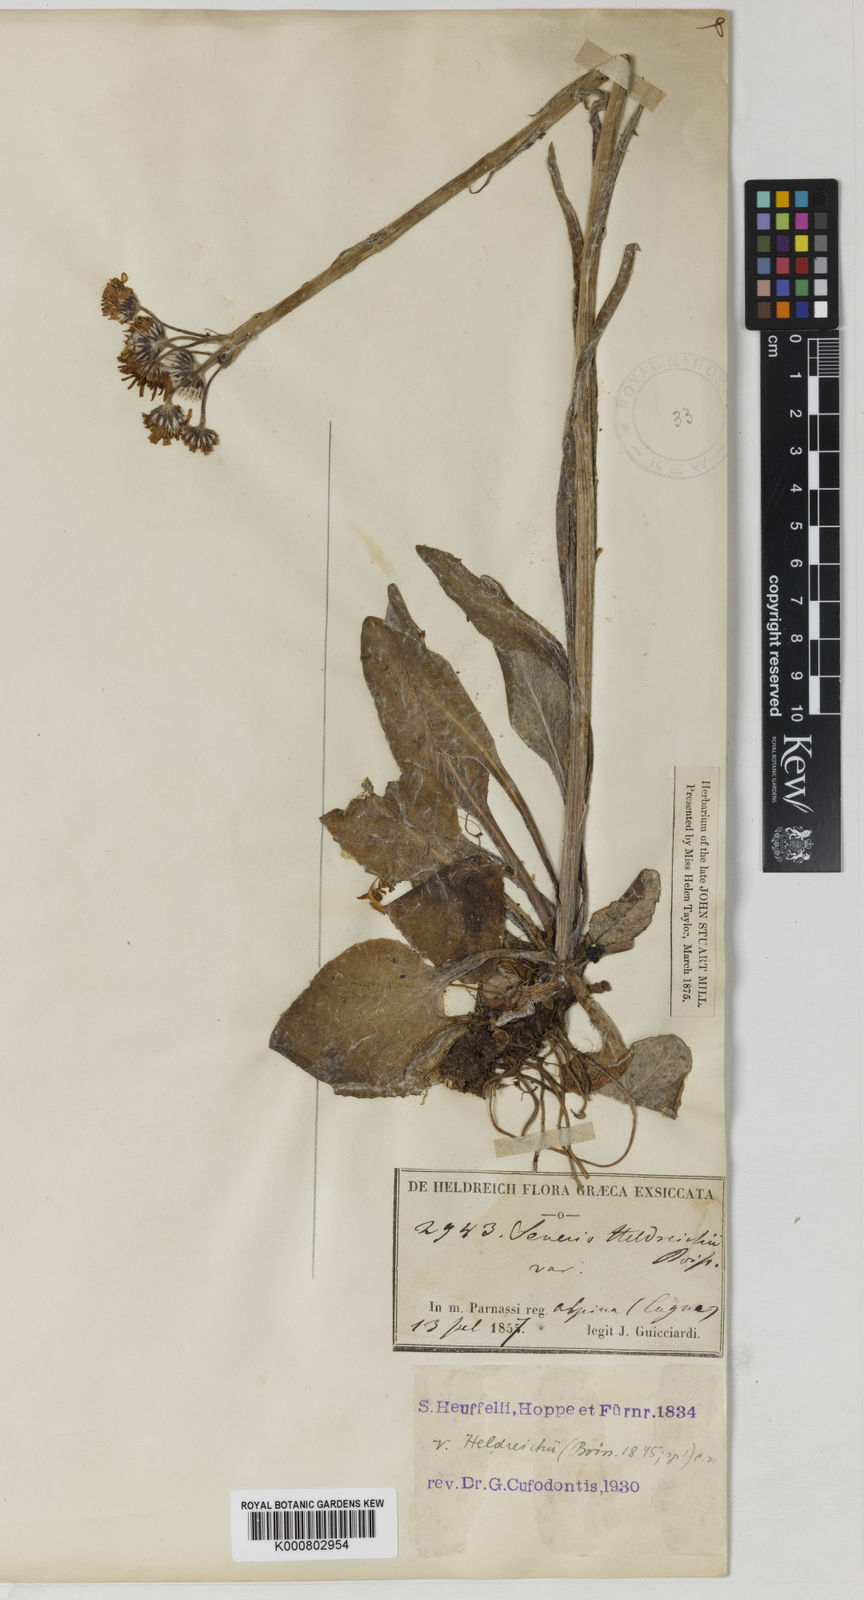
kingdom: Plantae
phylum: Tracheophyta
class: Magnoliopsida
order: Asterales
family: Asteraceae
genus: Tephroseris
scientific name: Tephroseris integrifolia
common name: Field fleawort
